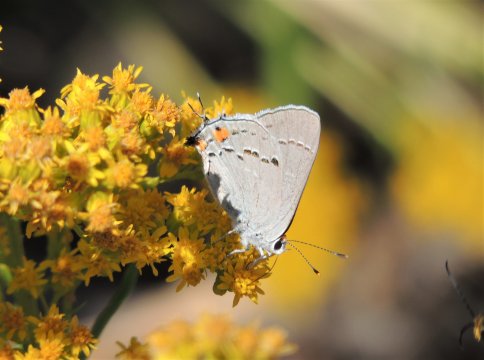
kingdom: Animalia
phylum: Arthropoda
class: Insecta
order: Lepidoptera
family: Lycaenidae
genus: Strymon
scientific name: Strymon melinus
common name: Gray Hairstreak
